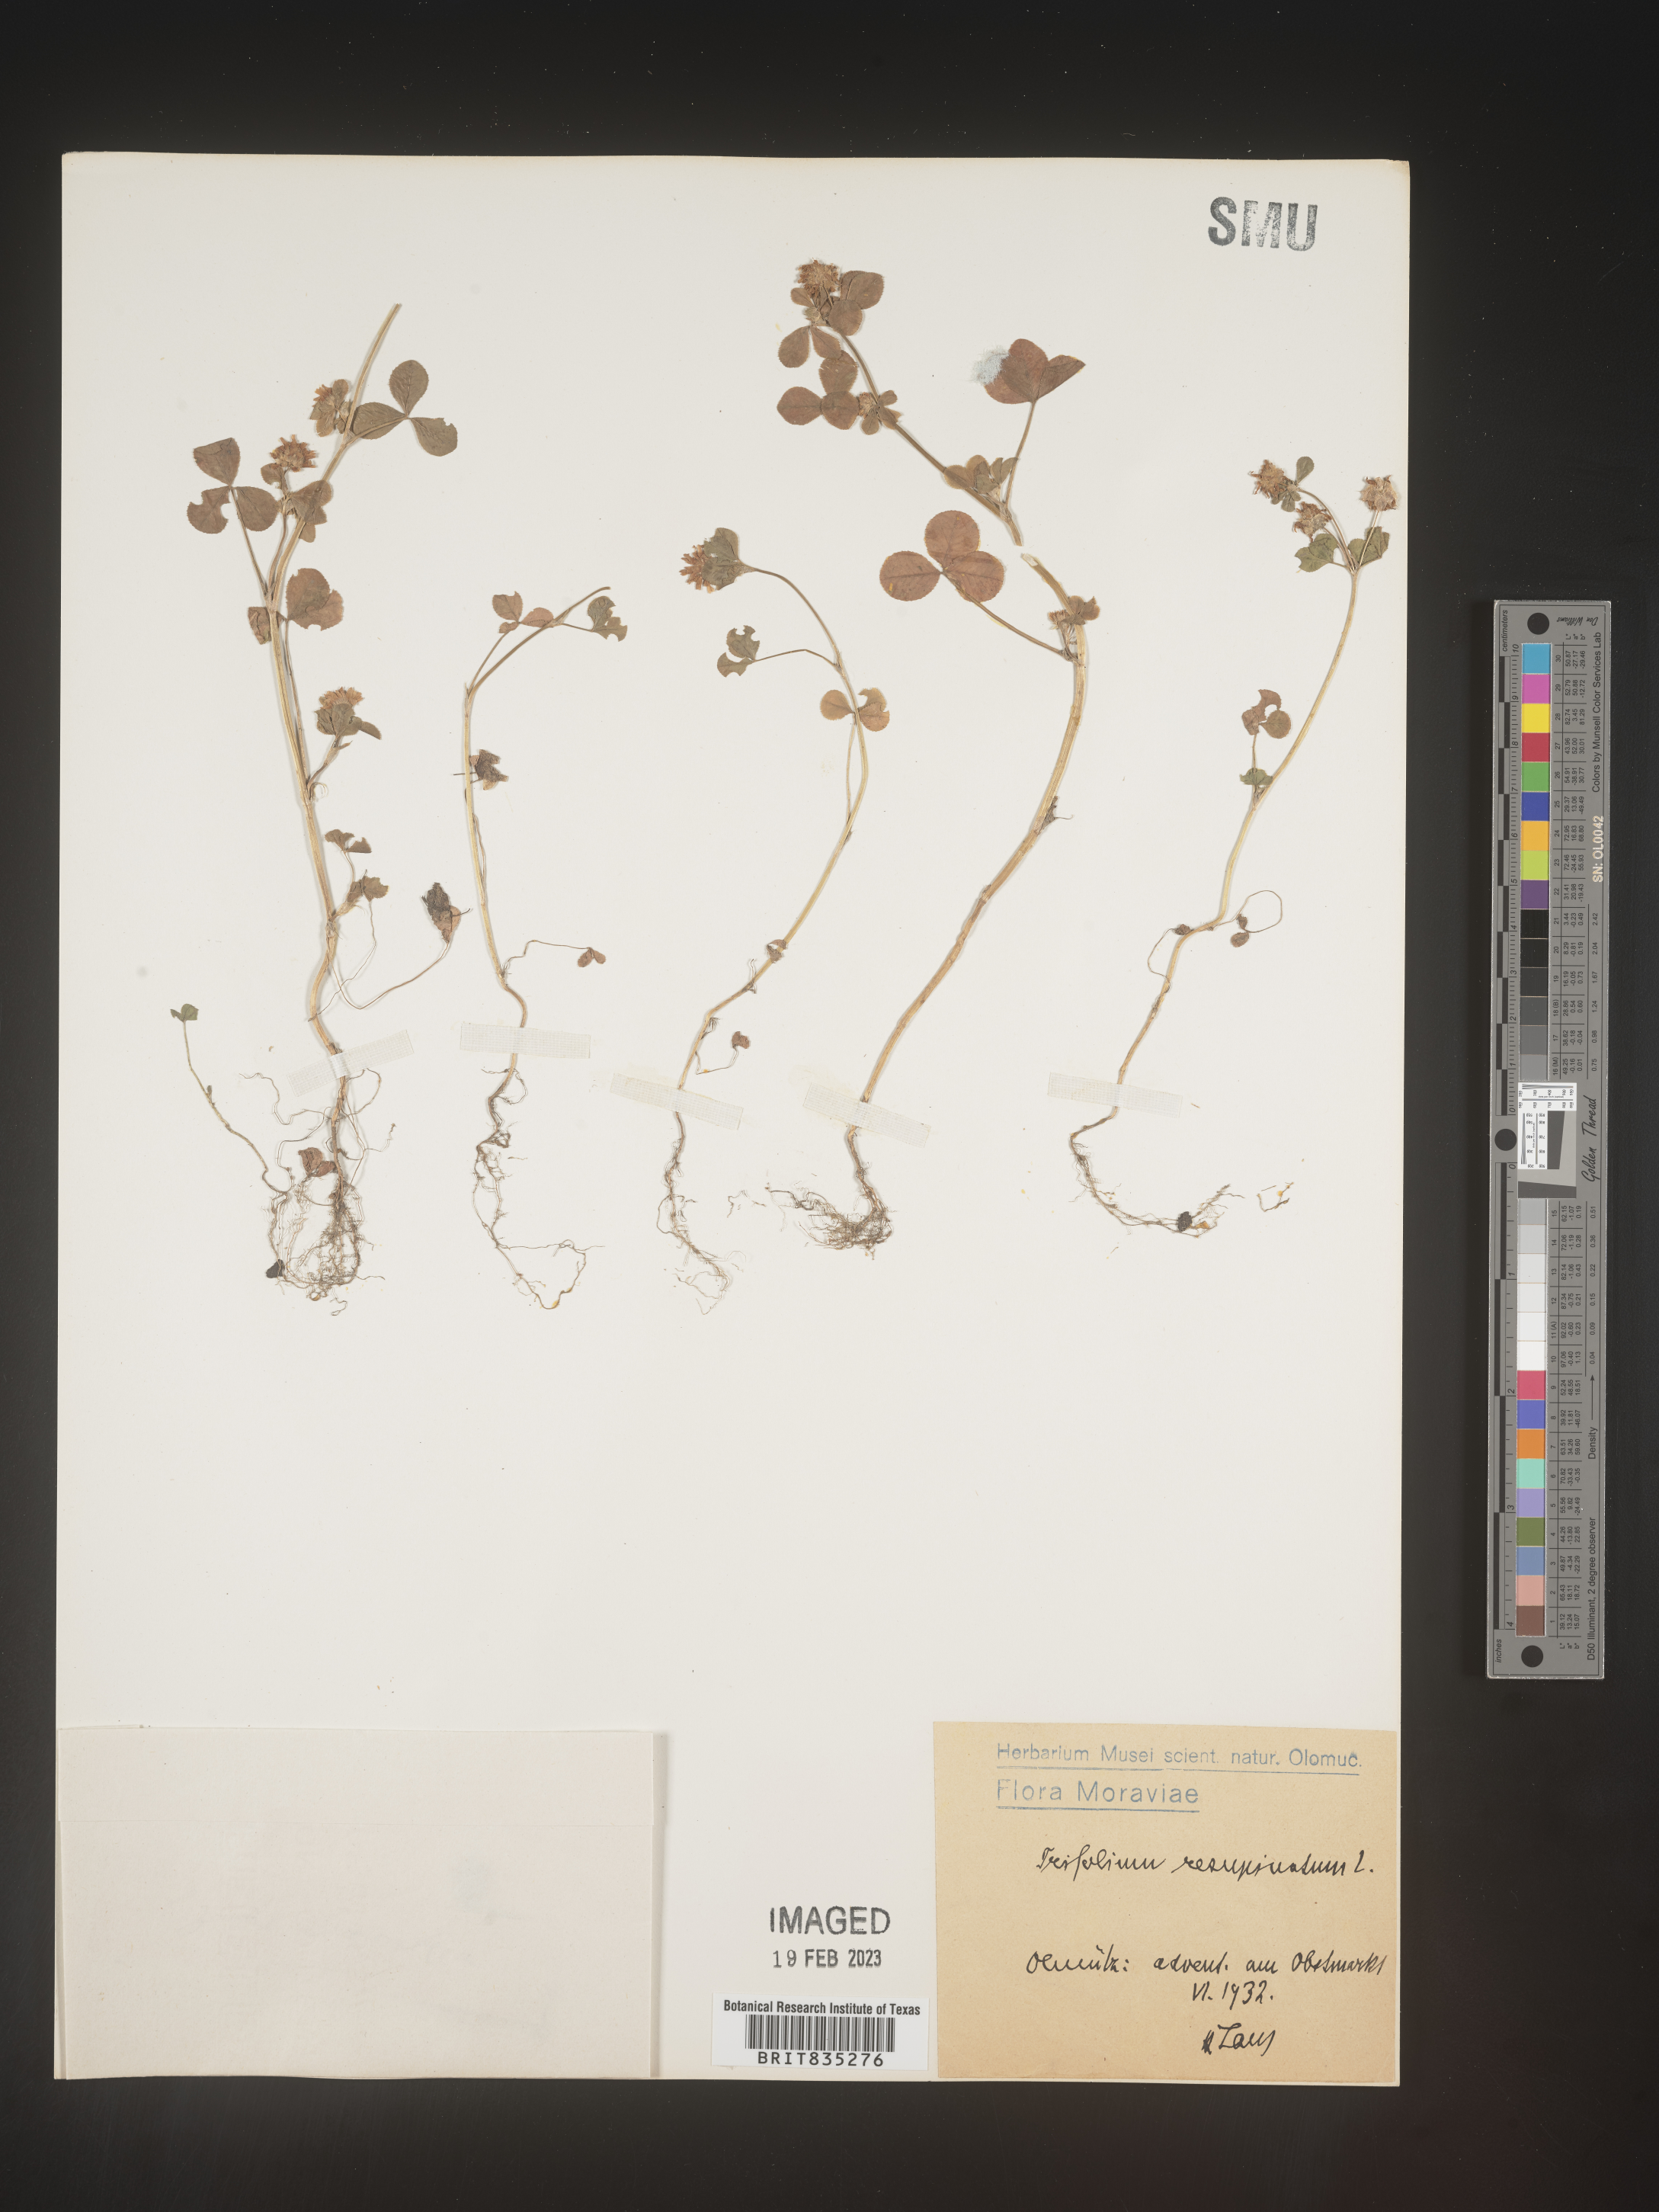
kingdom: Plantae
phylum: Tracheophyta
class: Magnoliopsida
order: Fabales
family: Fabaceae
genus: Trifolium
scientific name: Trifolium
